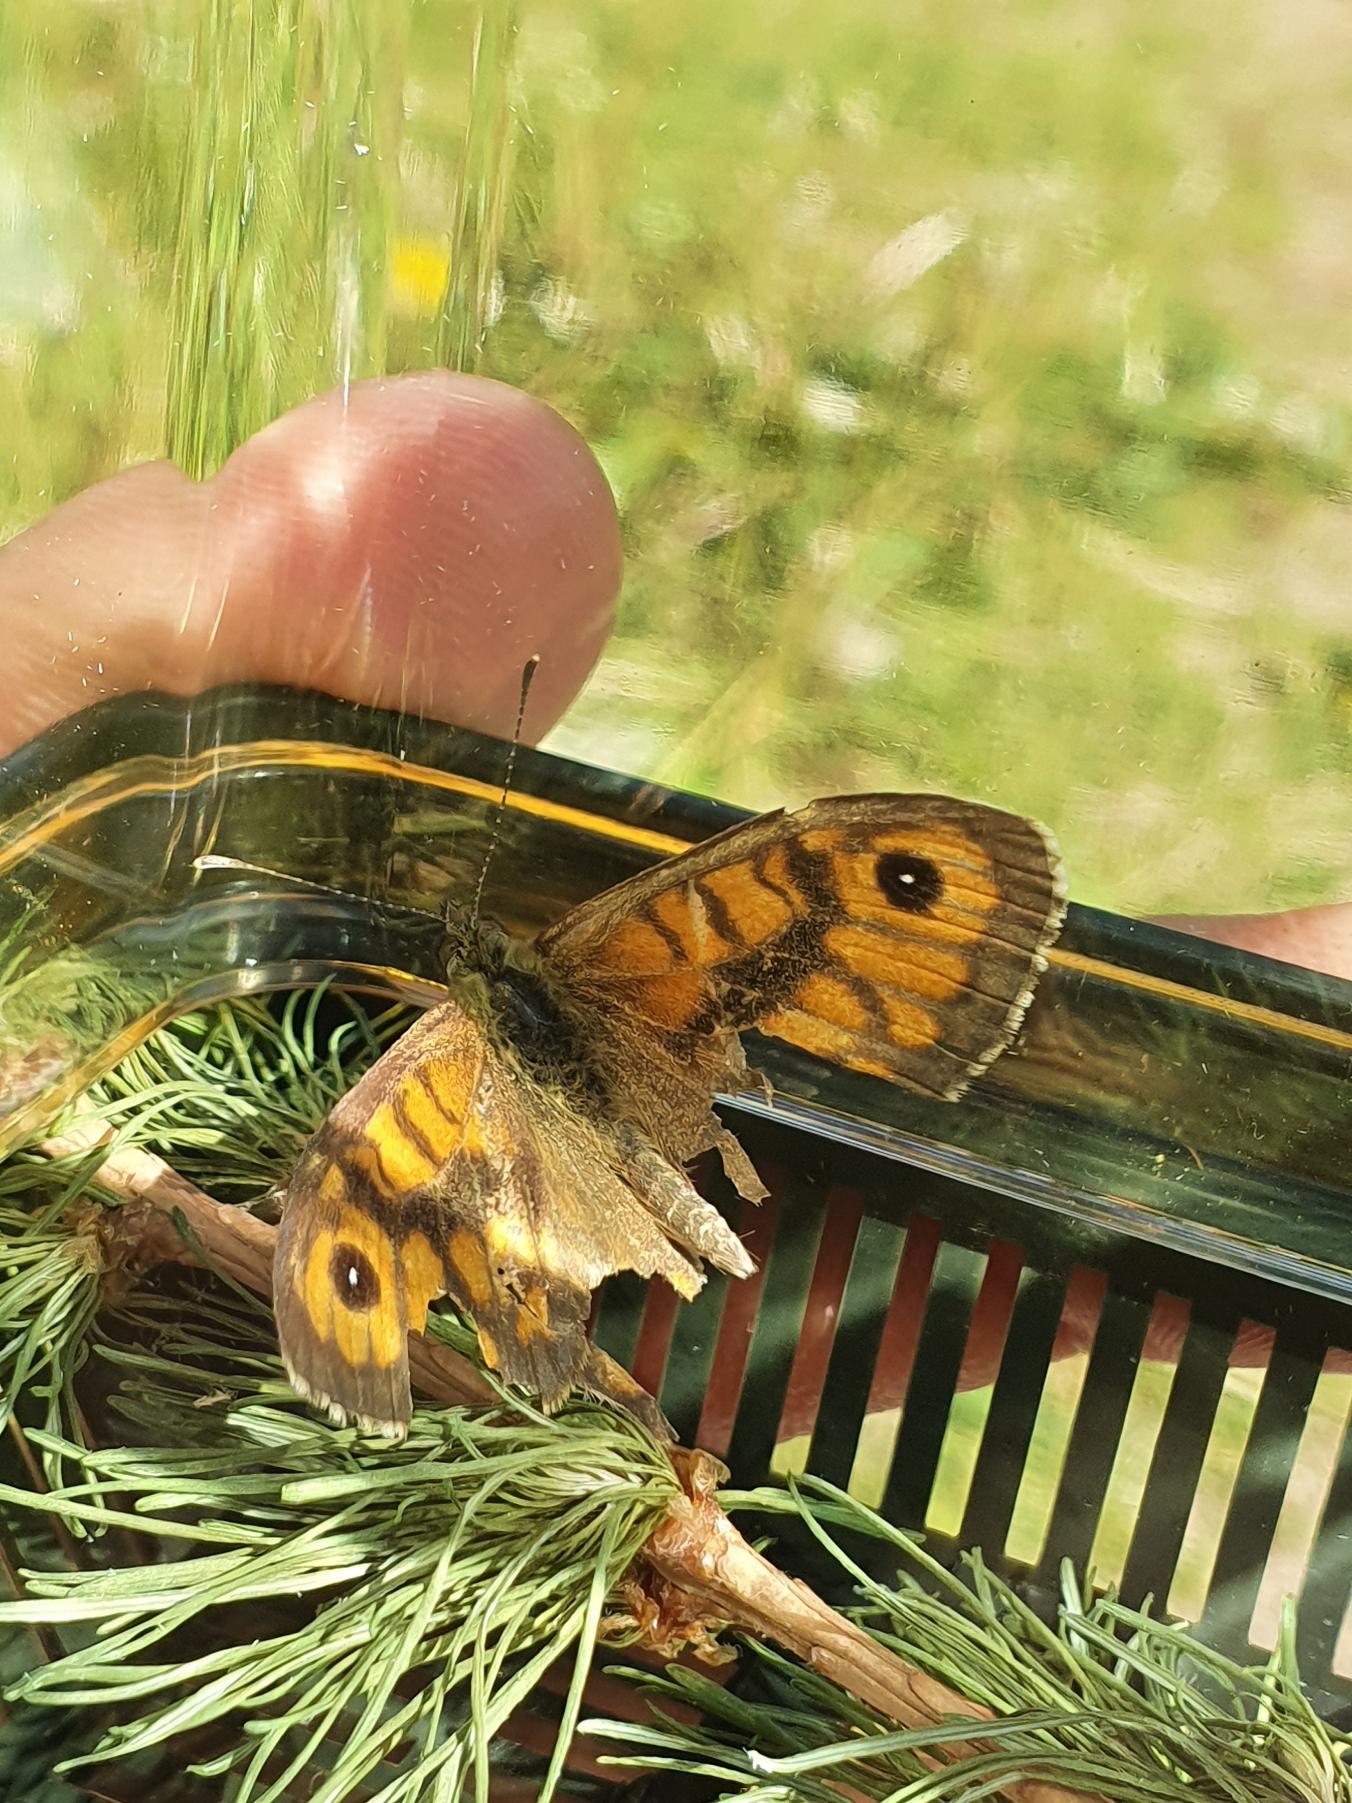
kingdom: Animalia
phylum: Arthropoda
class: Insecta
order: Lepidoptera
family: Nymphalidae
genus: Pararge
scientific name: Pararge Lasiommata megera
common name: Vejrandøje
